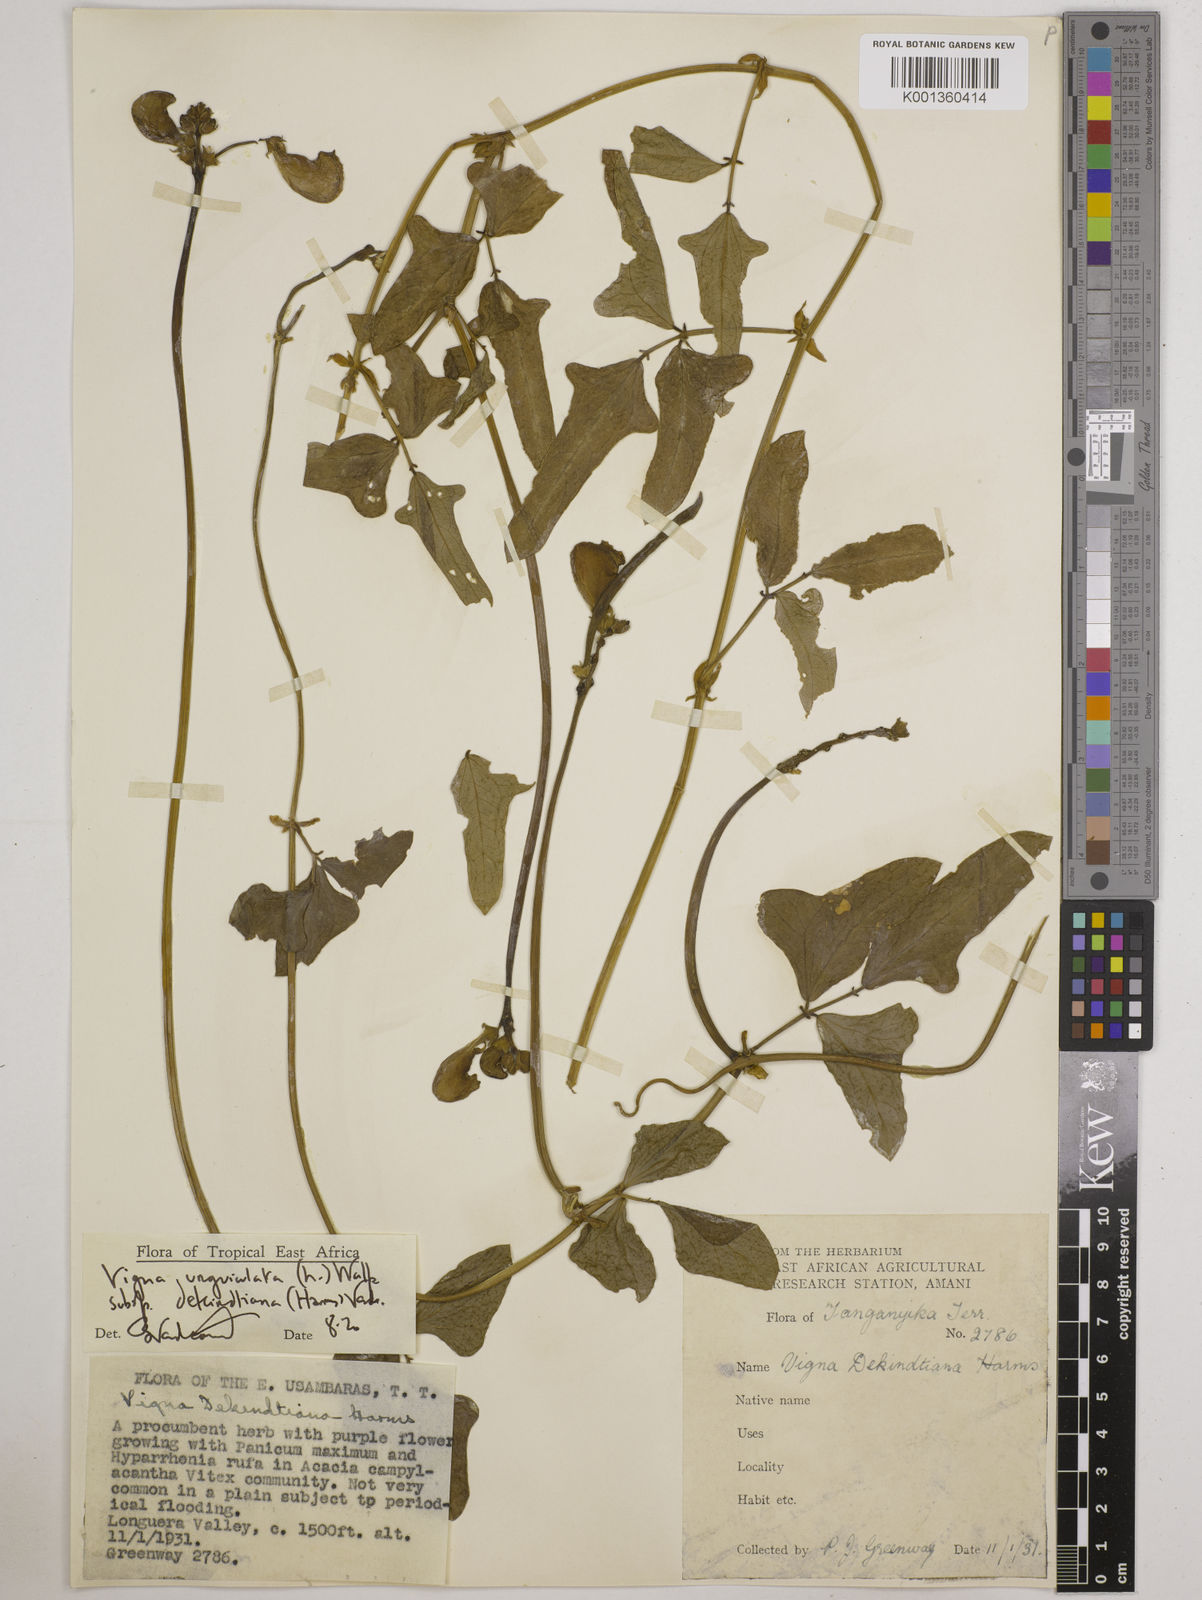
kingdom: Plantae
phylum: Tracheophyta
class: Magnoliopsida
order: Fabales
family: Fabaceae
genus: Vigna
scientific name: Vigna
